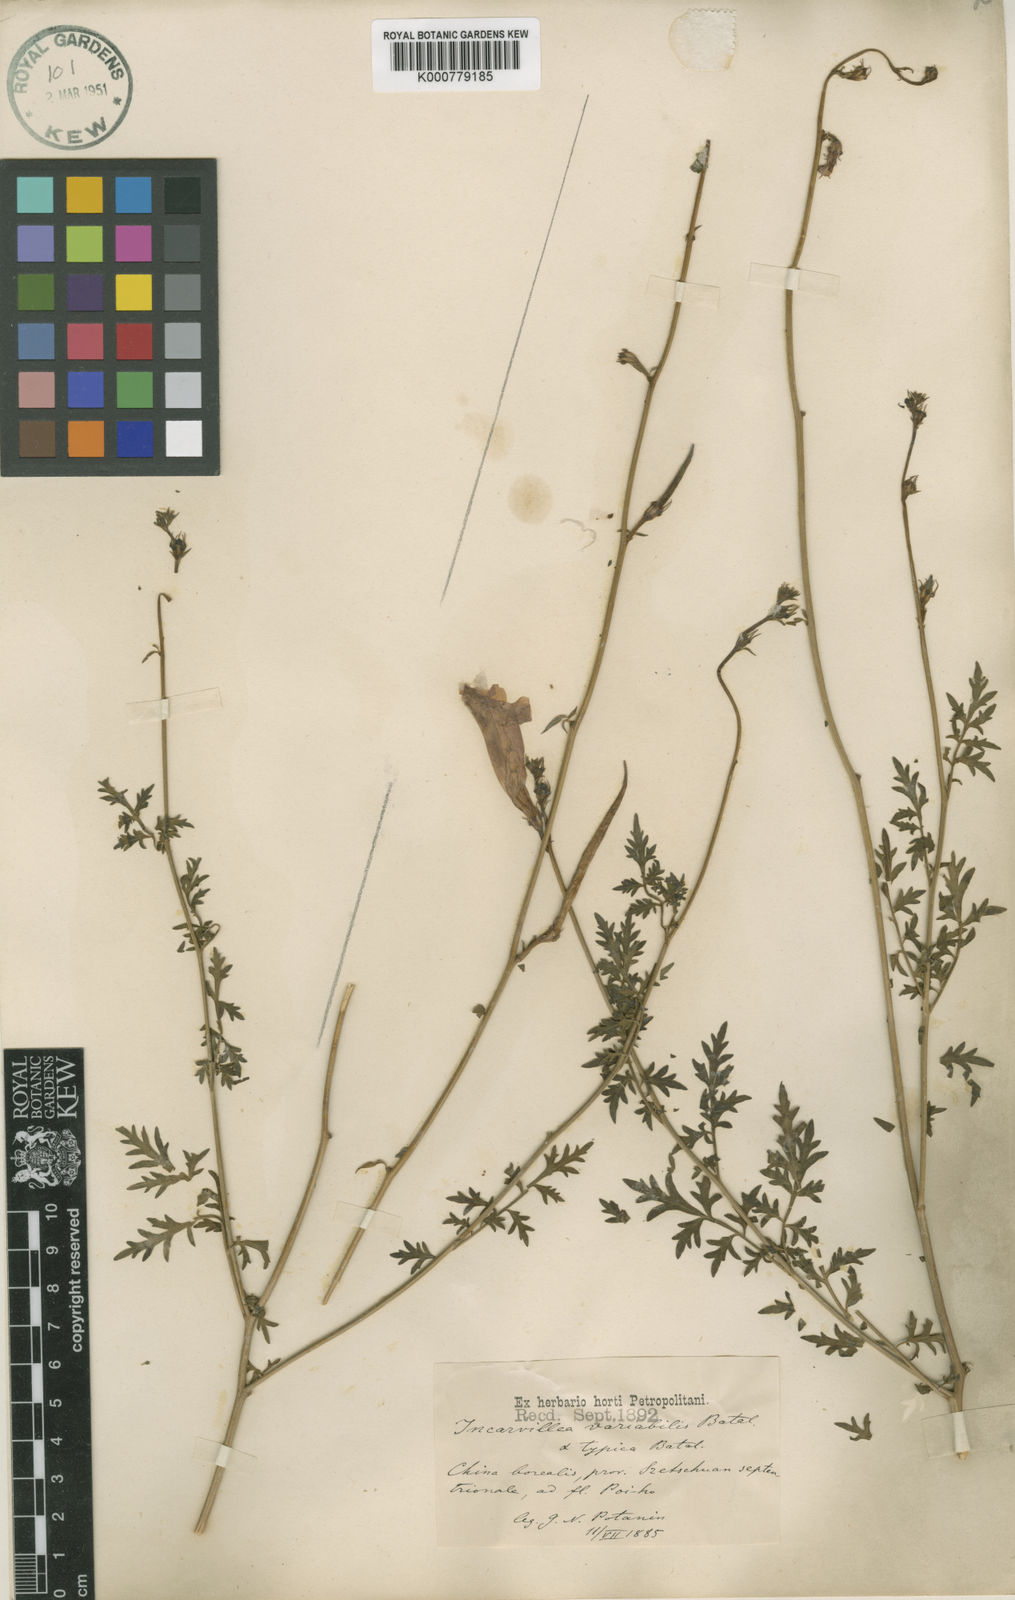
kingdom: Plantae
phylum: Tracheophyta
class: Magnoliopsida
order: Lamiales
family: Bignoniaceae
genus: Incarvillea
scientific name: Incarvillea sinensis
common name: Trumpet-flower
